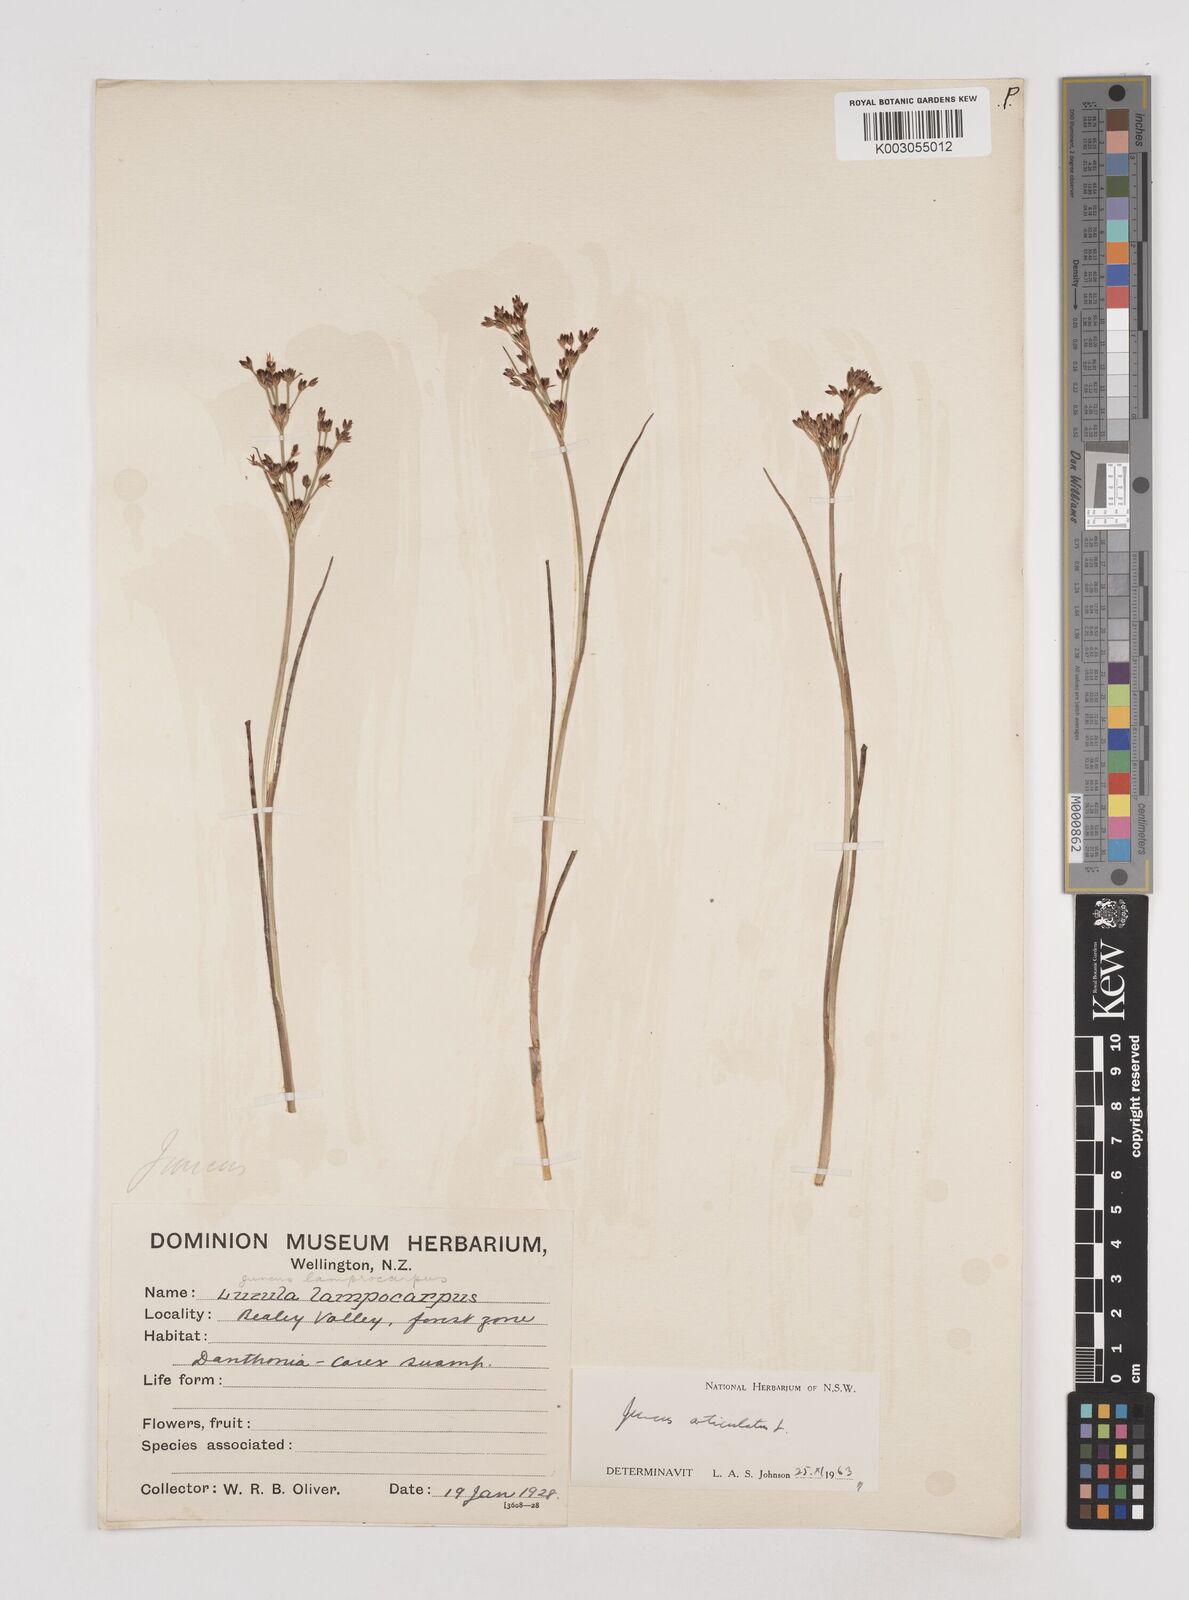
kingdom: Plantae
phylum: Tracheophyta
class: Liliopsida
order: Poales
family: Juncaceae
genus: Juncus
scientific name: Juncus articulatus
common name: Jointed rush
